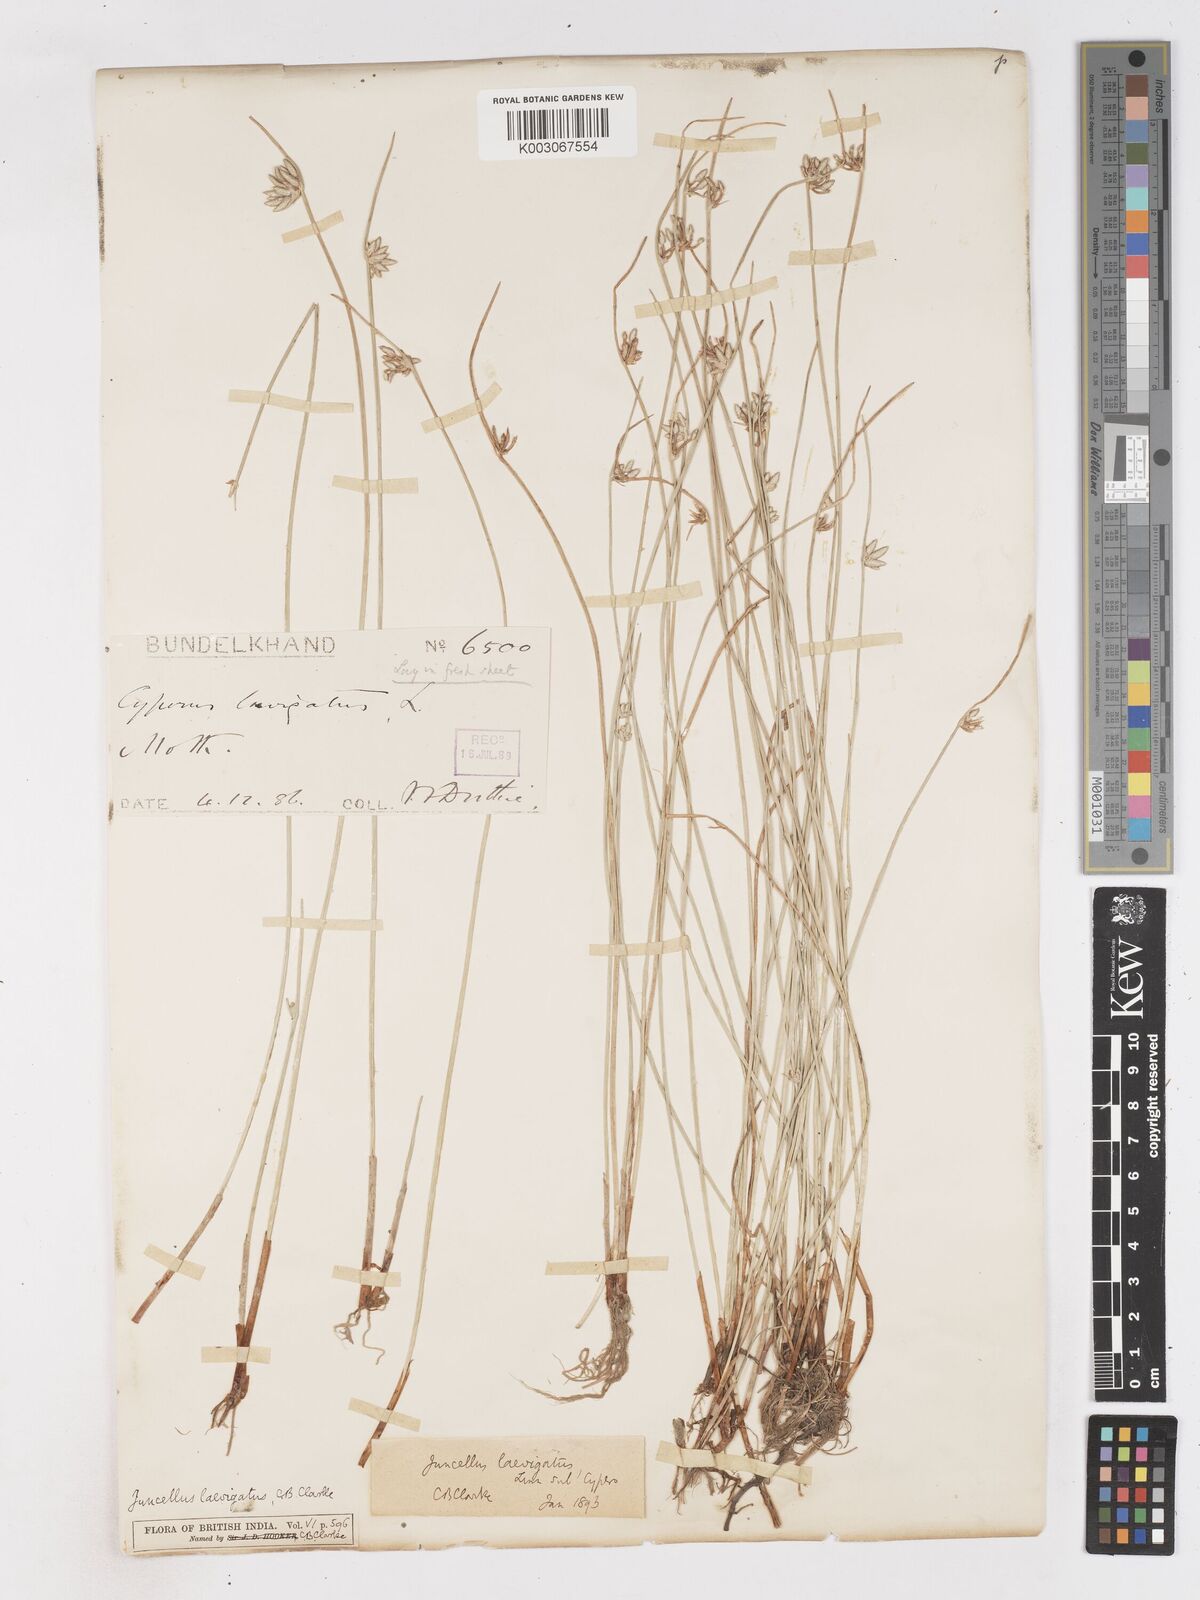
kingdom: Plantae
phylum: Tracheophyta
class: Liliopsida
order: Poales
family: Cyperaceae
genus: Cyperus
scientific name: Cyperus laevigatus
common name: Smooth flat sedge
